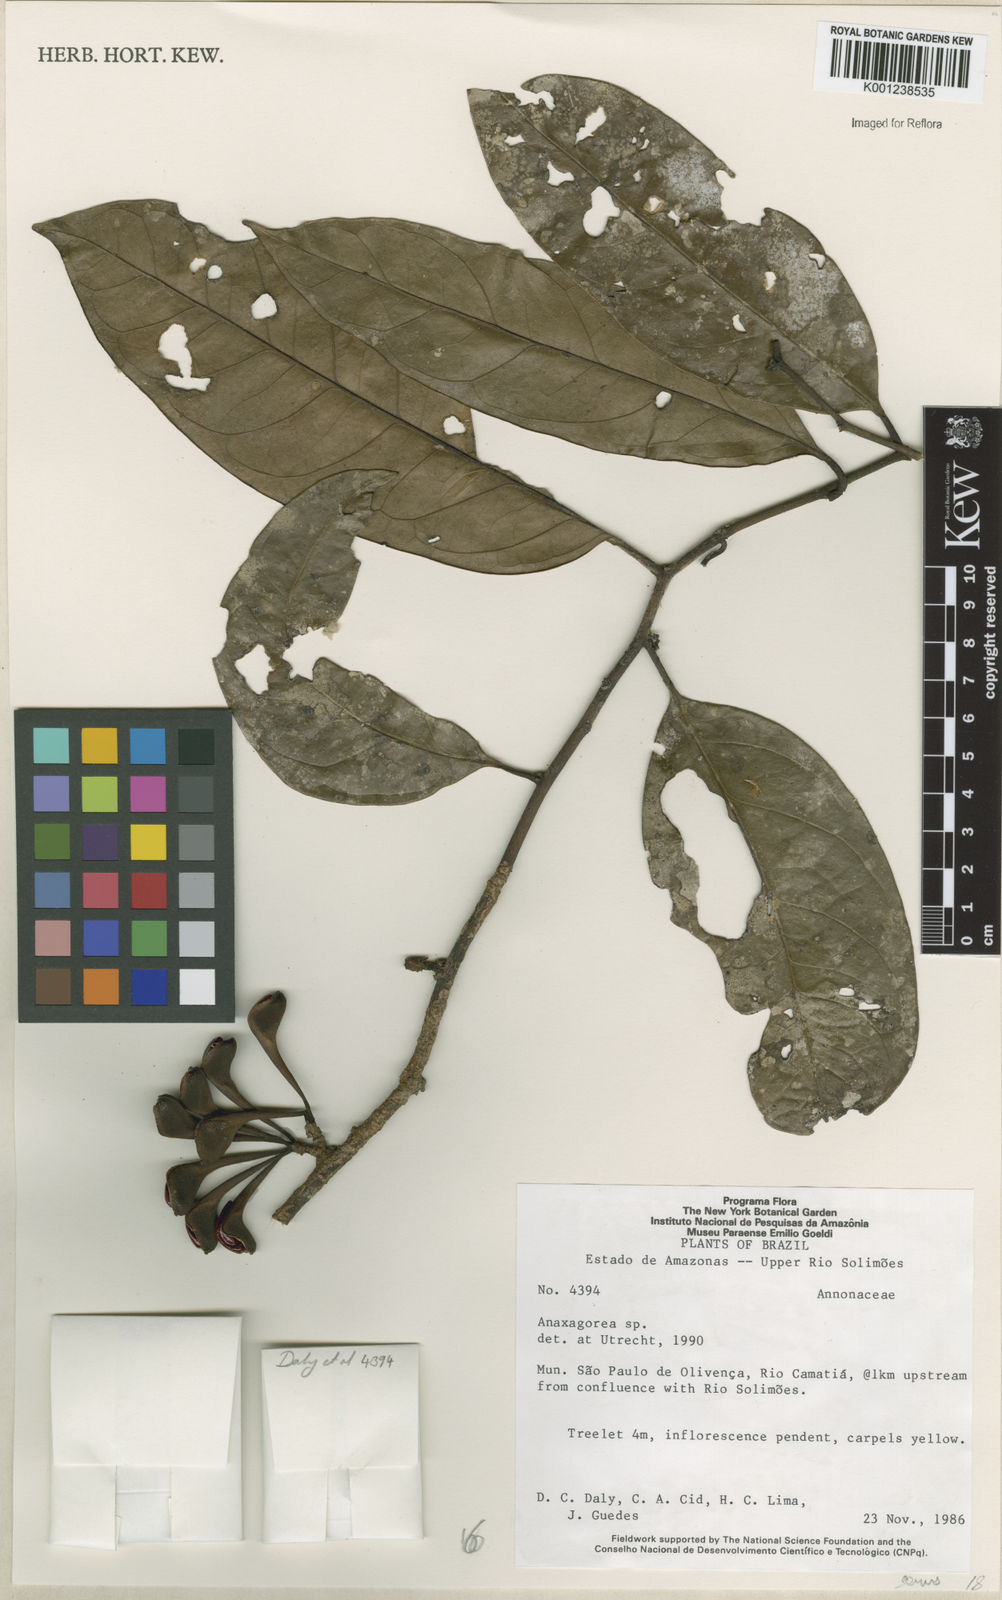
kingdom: Plantae
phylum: Tracheophyta
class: Magnoliopsida
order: Magnoliales
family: Annonaceae
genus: Anaxagorea
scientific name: Anaxagorea
